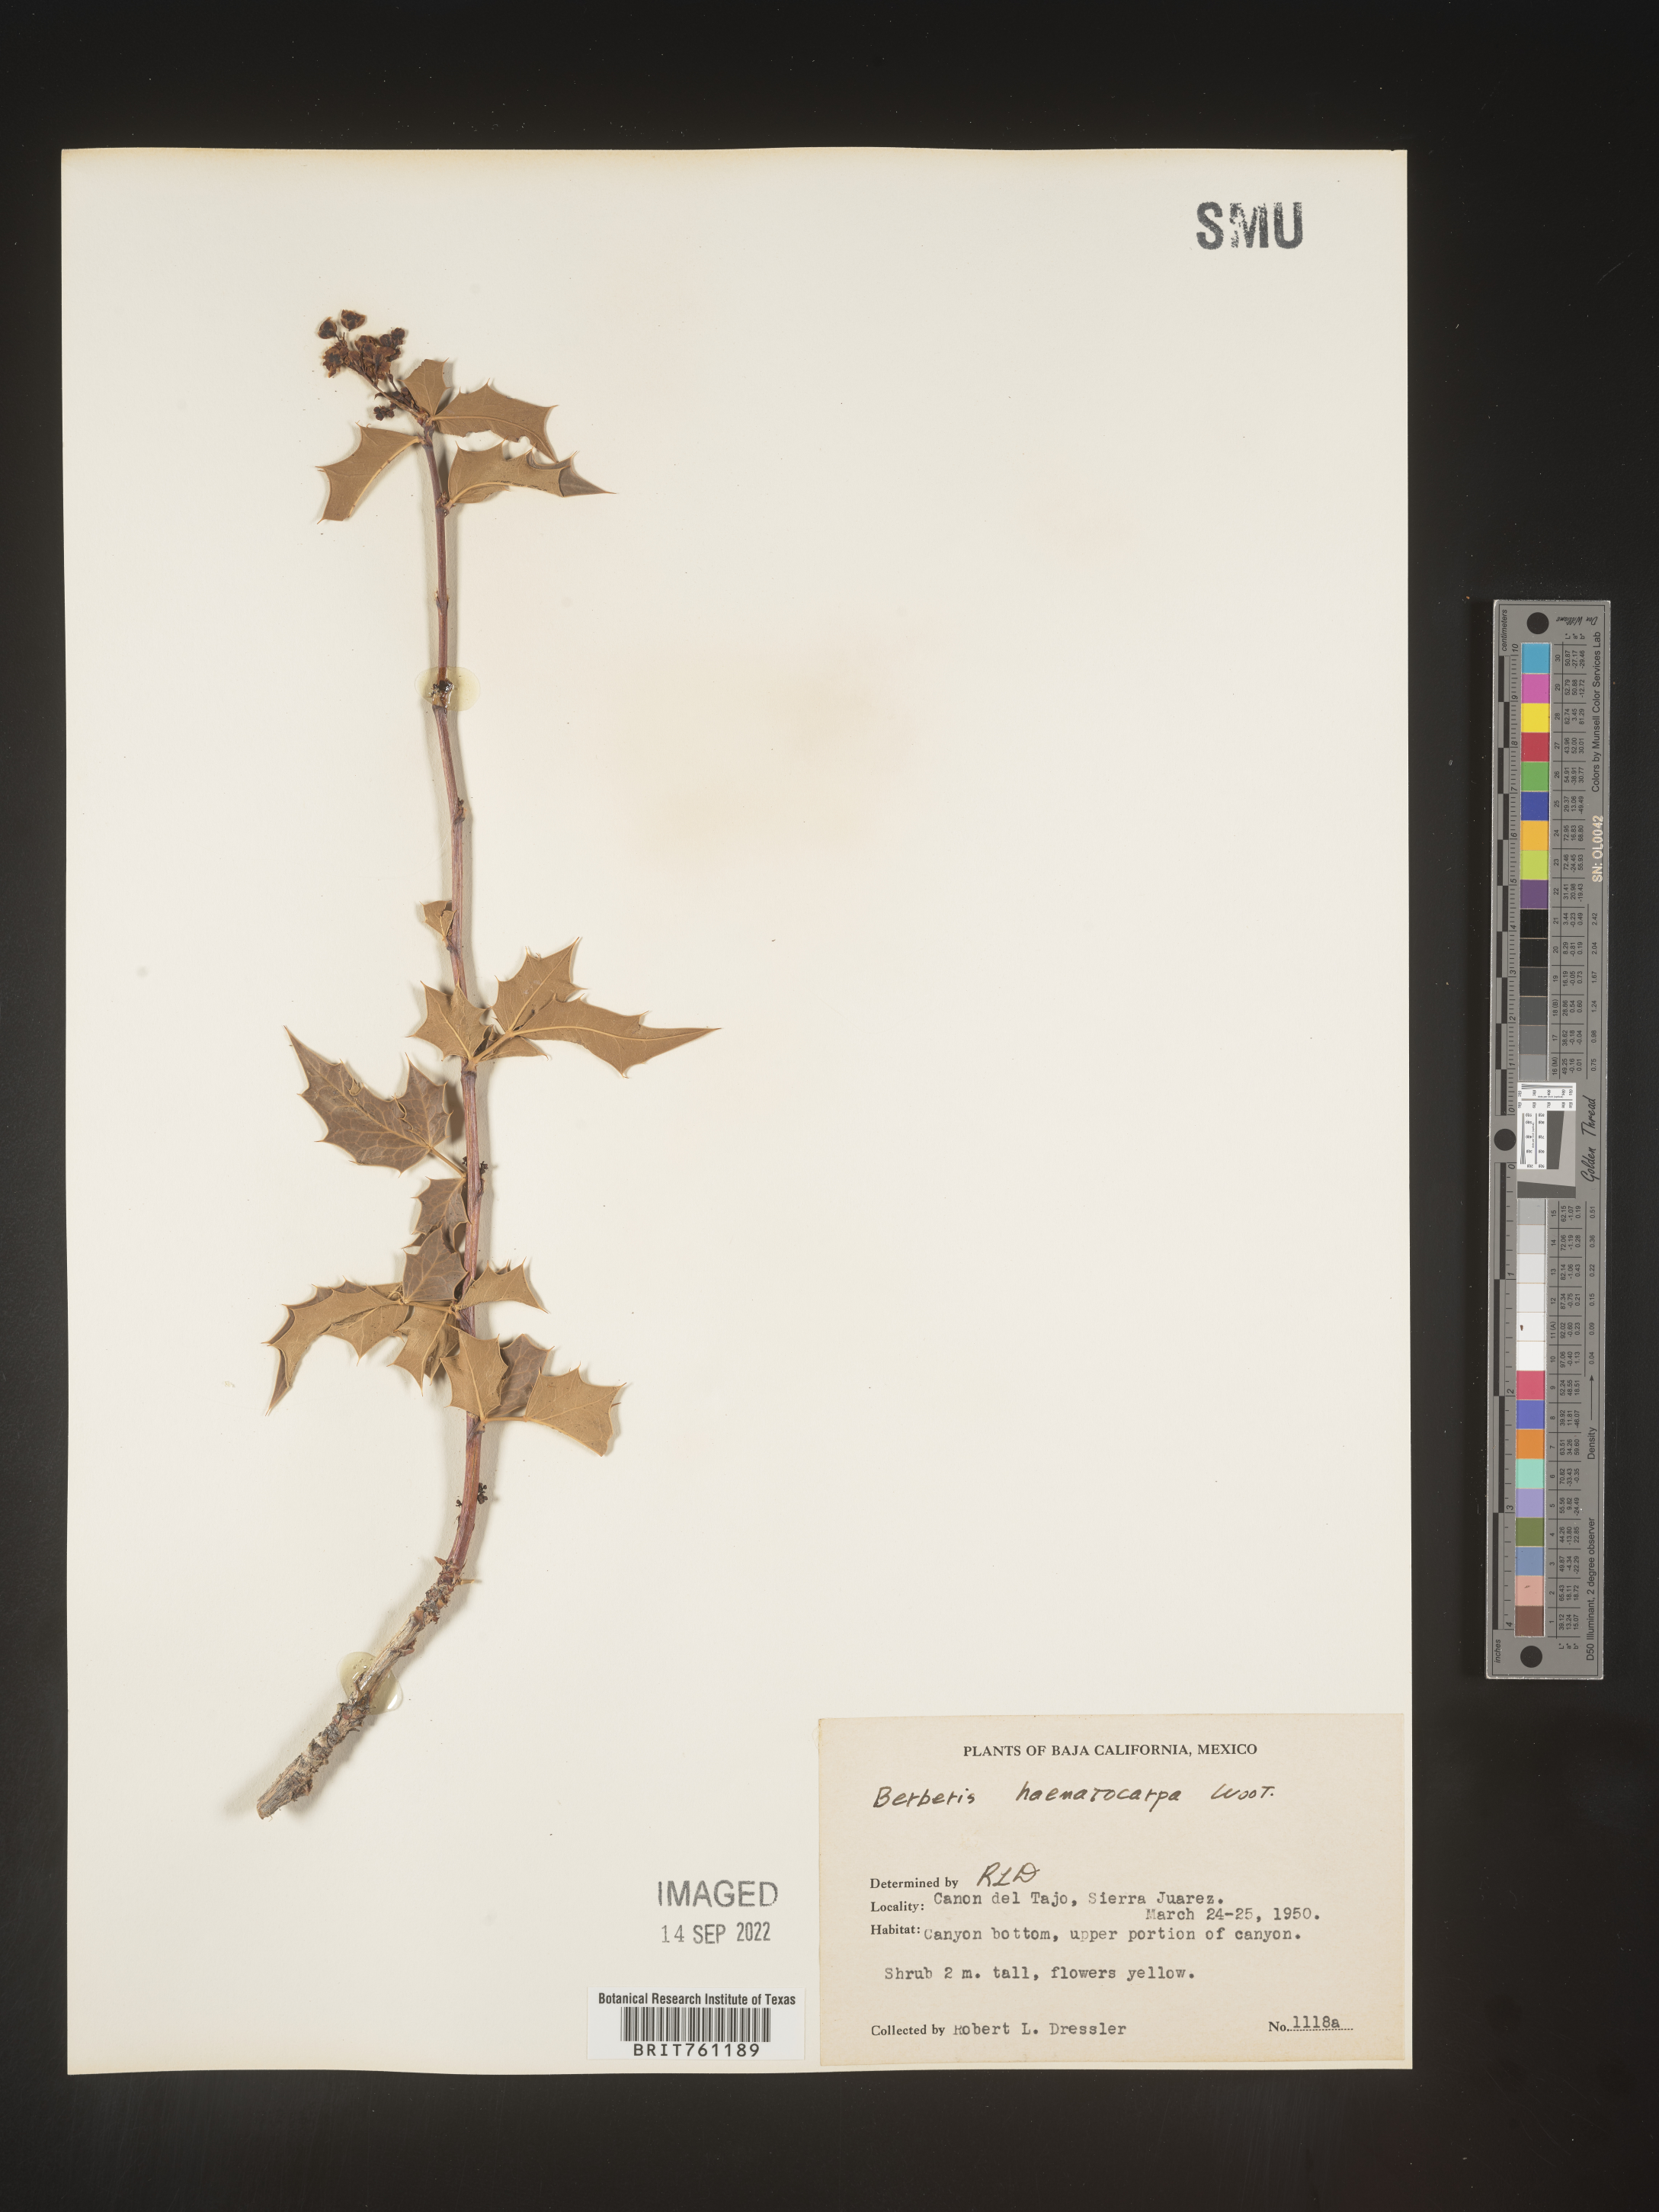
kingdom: Plantae
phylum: Tracheophyta
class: Magnoliopsida
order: Ranunculales
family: Berberidaceae
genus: Mahonia
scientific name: Mahonia
